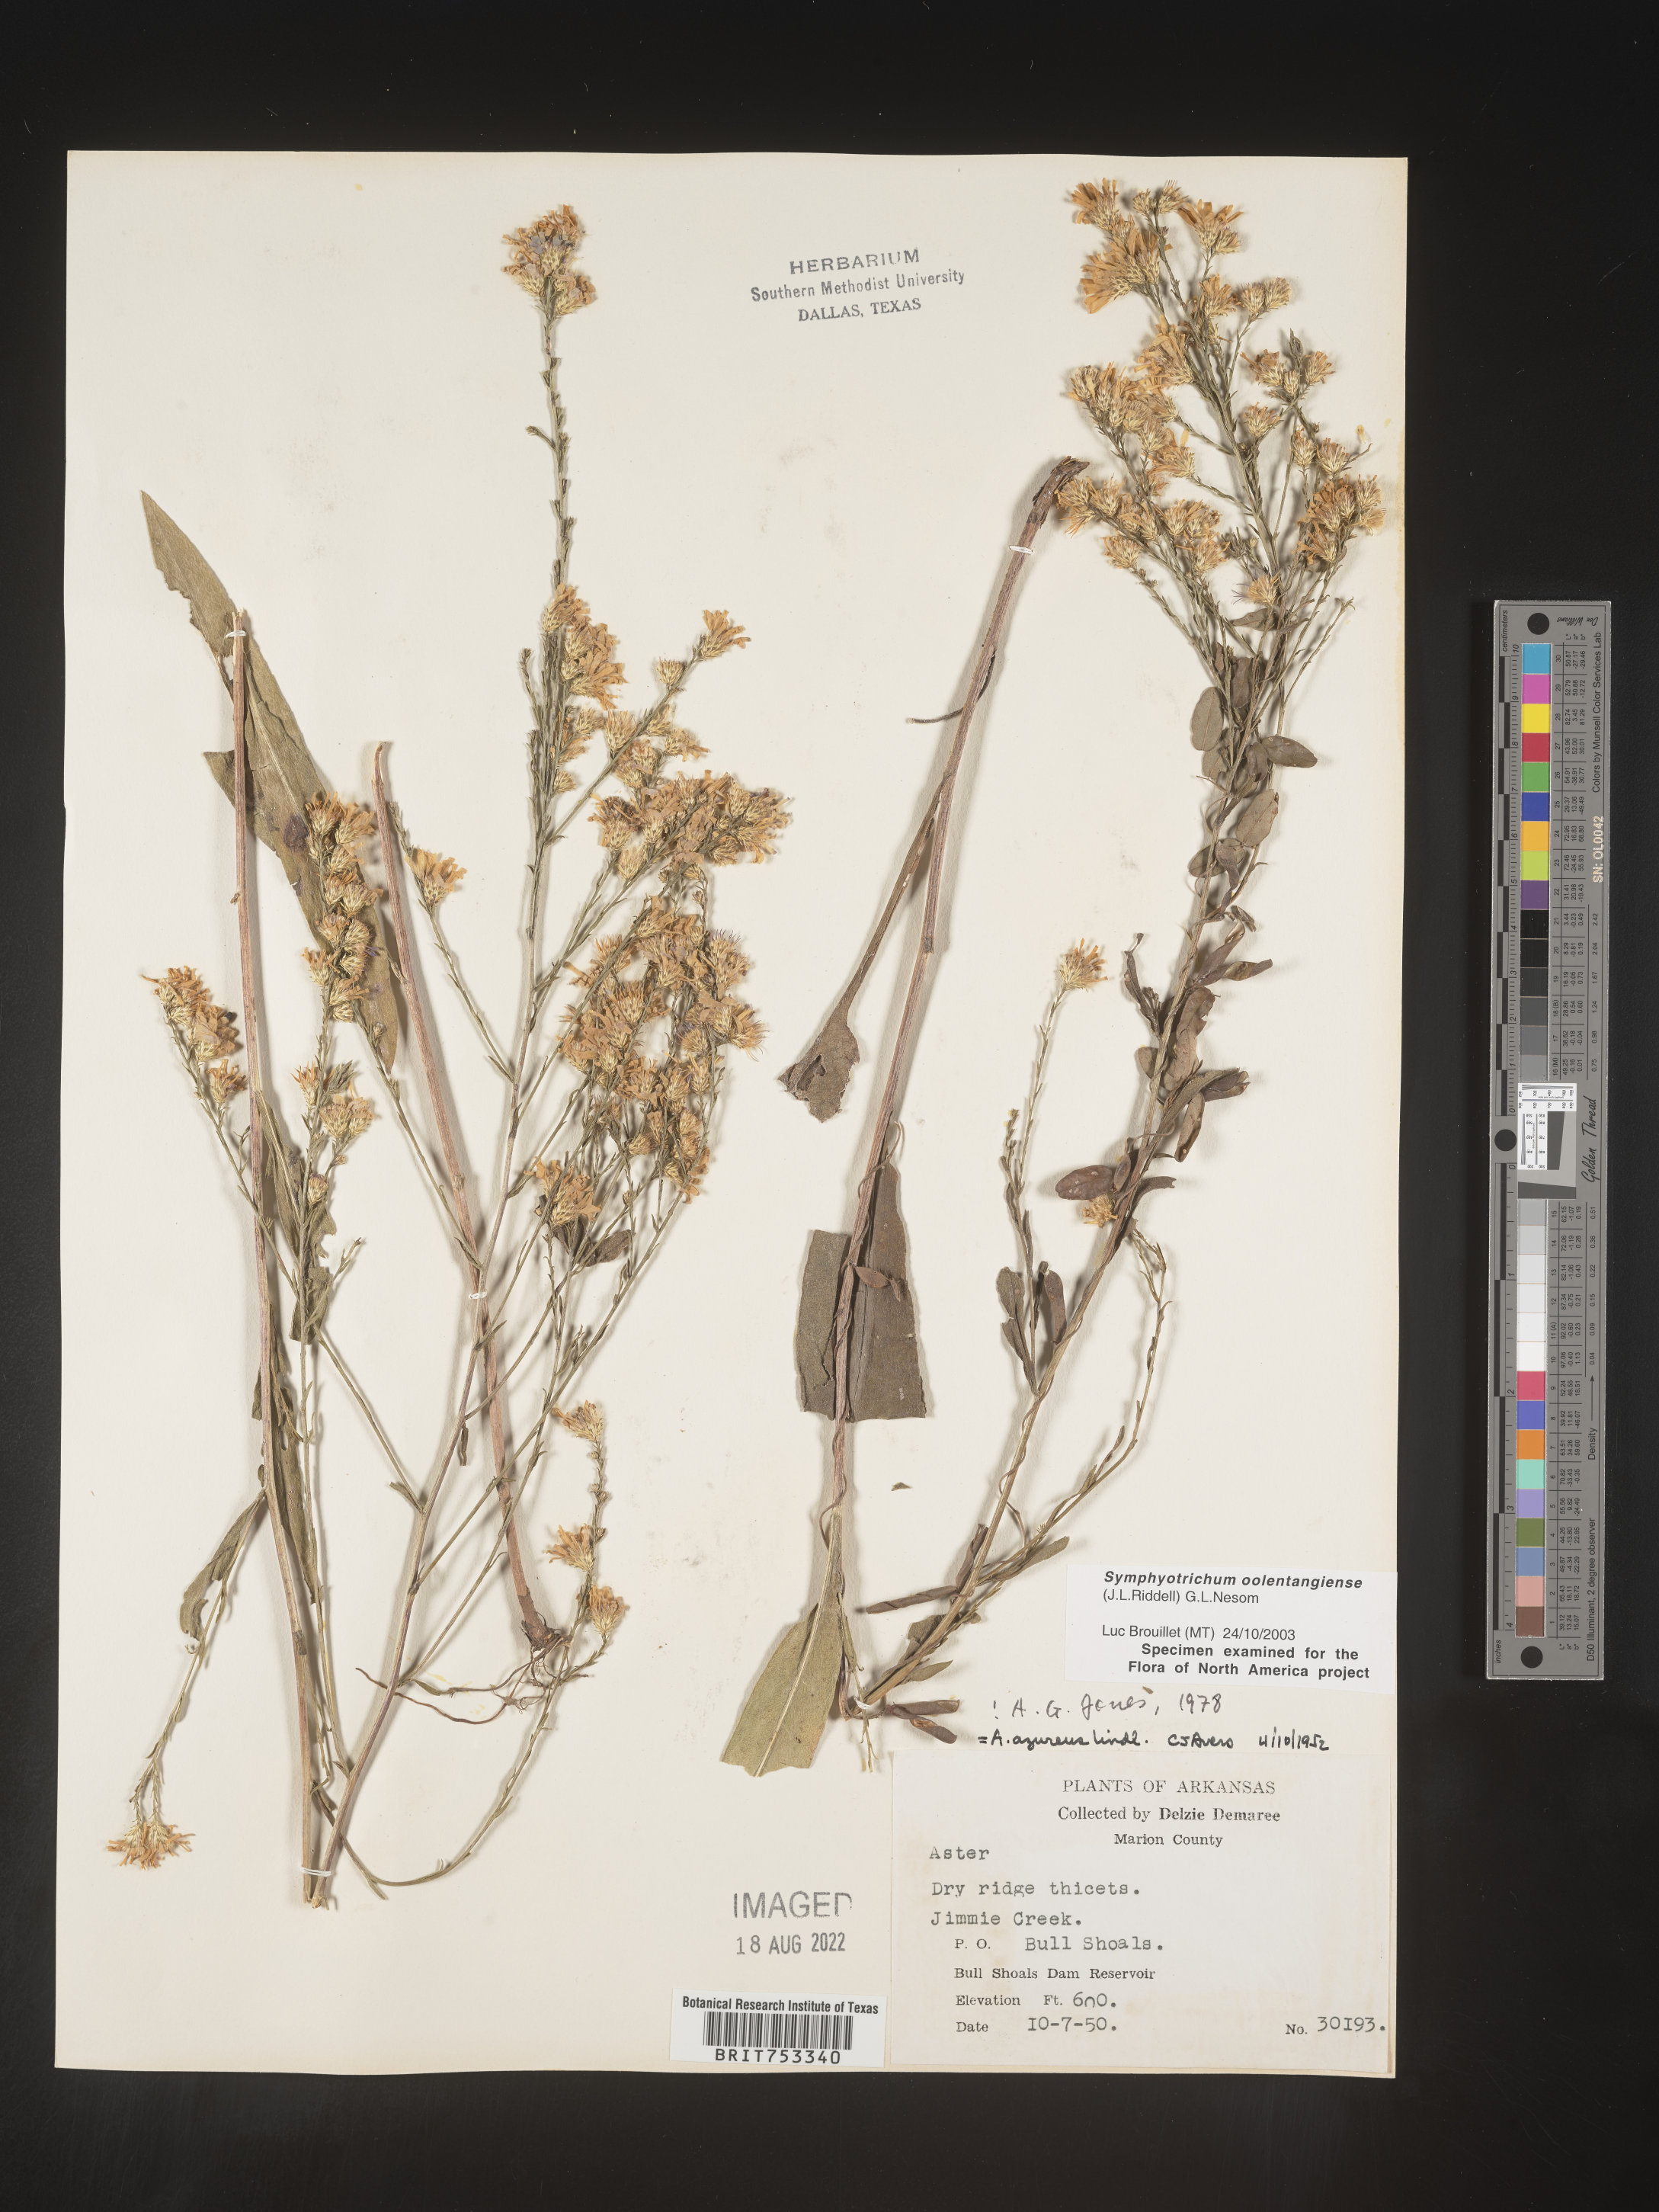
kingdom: Plantae
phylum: Tracheophyta
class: Magnoliopsida
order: Asterales
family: Asteraceae
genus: Symphyotrichum
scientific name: Symphyotrichum oolentangiense
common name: Azure aster
